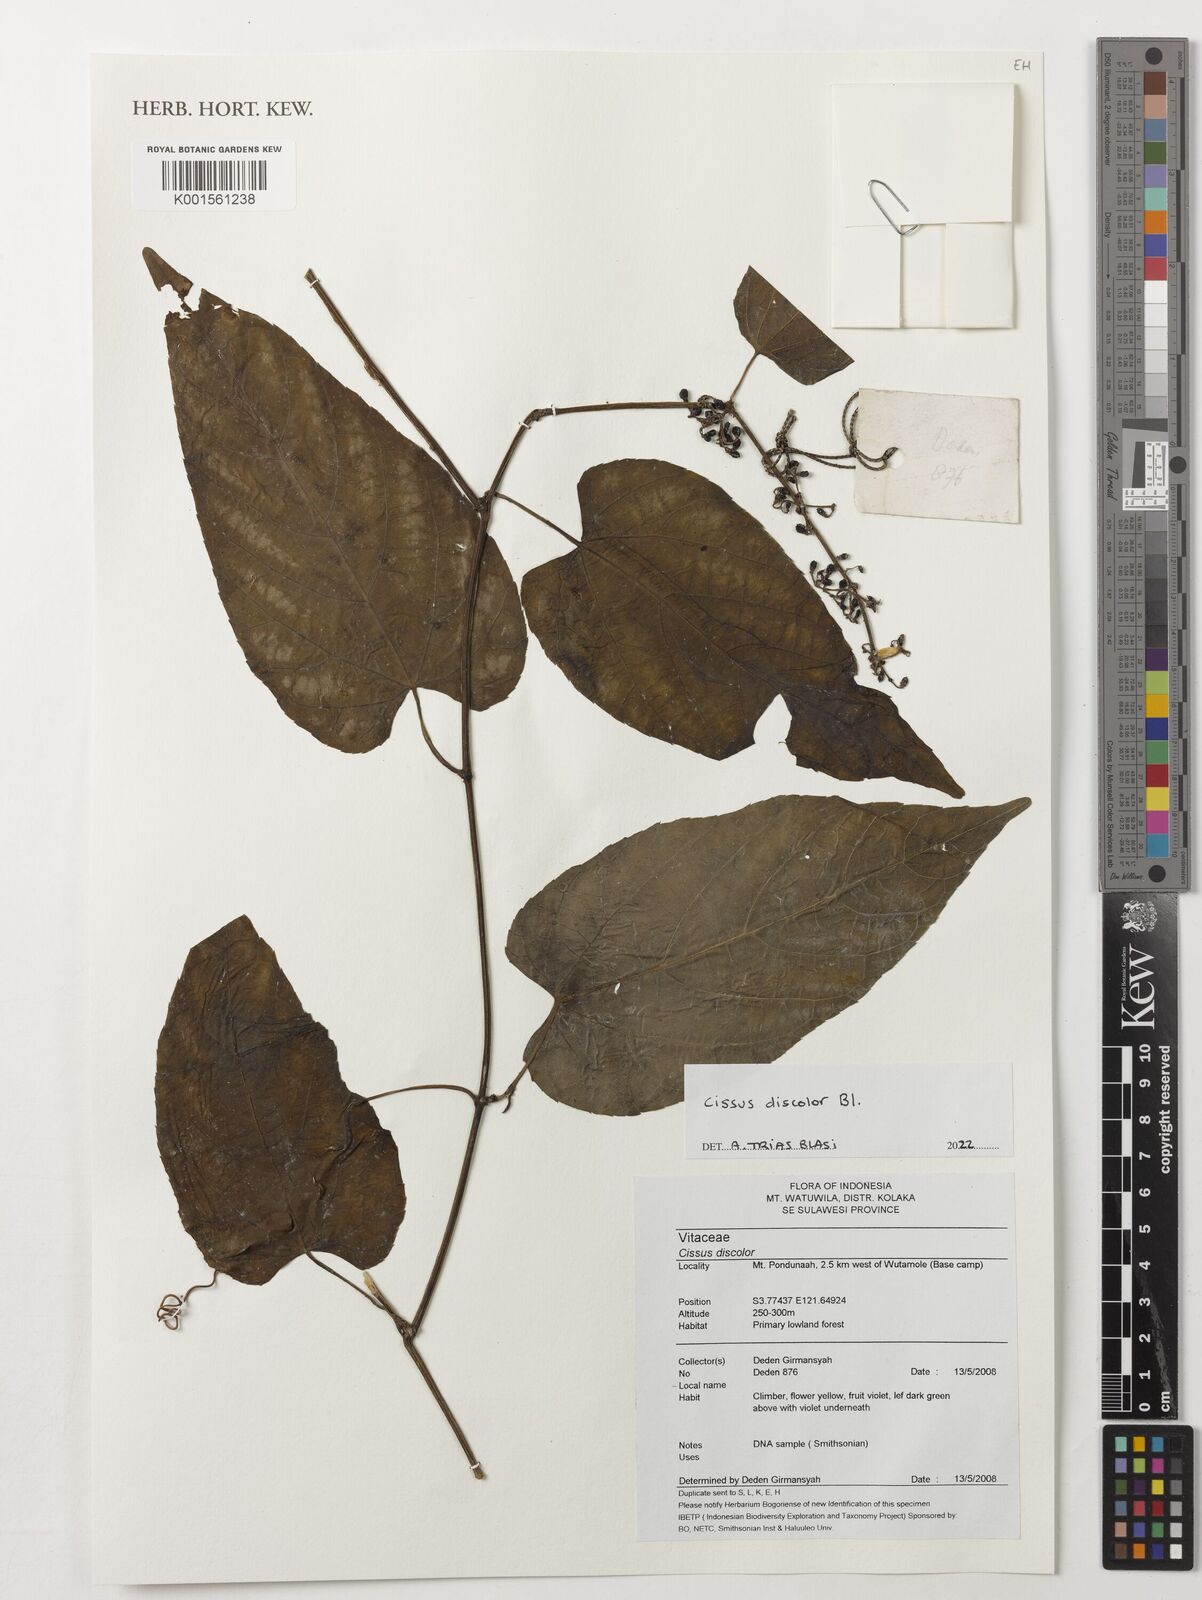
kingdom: Plantae
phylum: Tracheophyta
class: Magnoliopsida
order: Vitales
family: Vitaceae
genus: Cissus
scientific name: Cissus discolor
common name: Climbing-begonia
